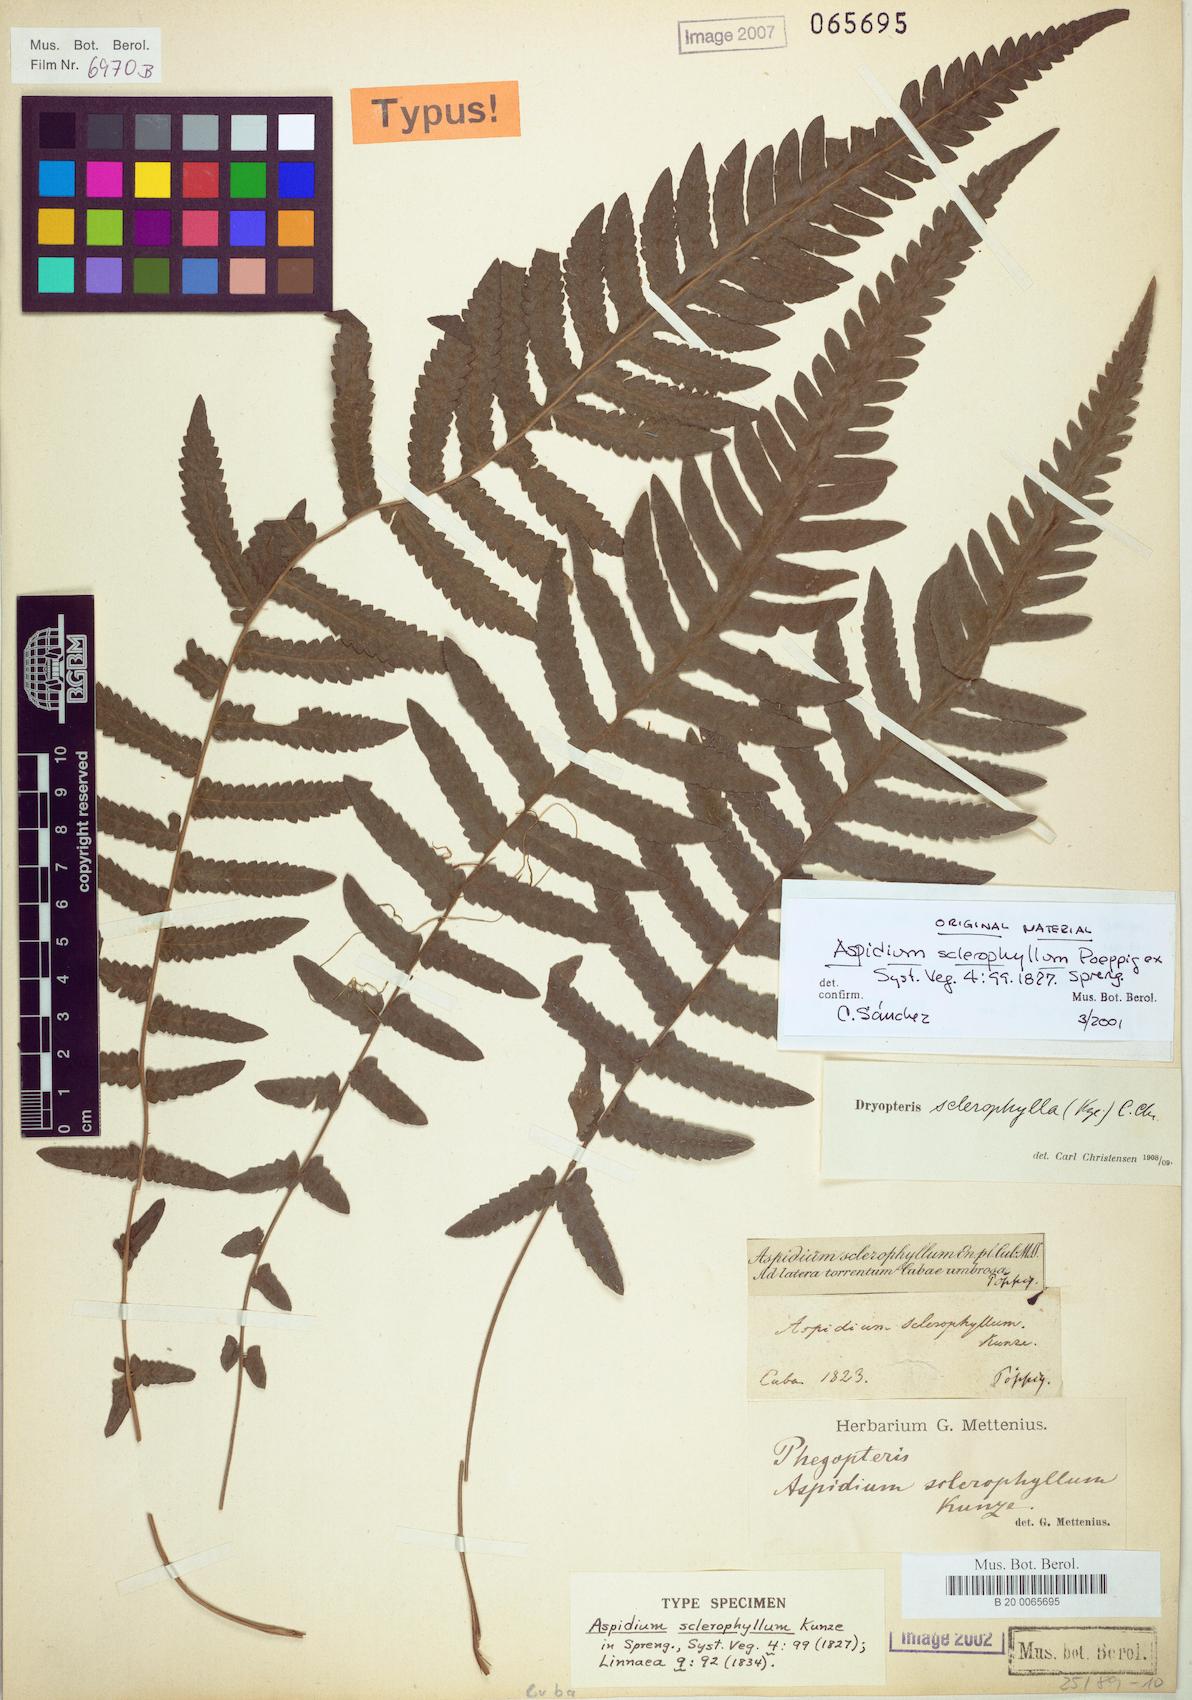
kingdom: Plantae
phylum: Tracheophyta
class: Polypodiopsida
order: Polypodiales
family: Thelypteridaceae
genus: Goniopteris
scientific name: Goniopteris sclerophylla
